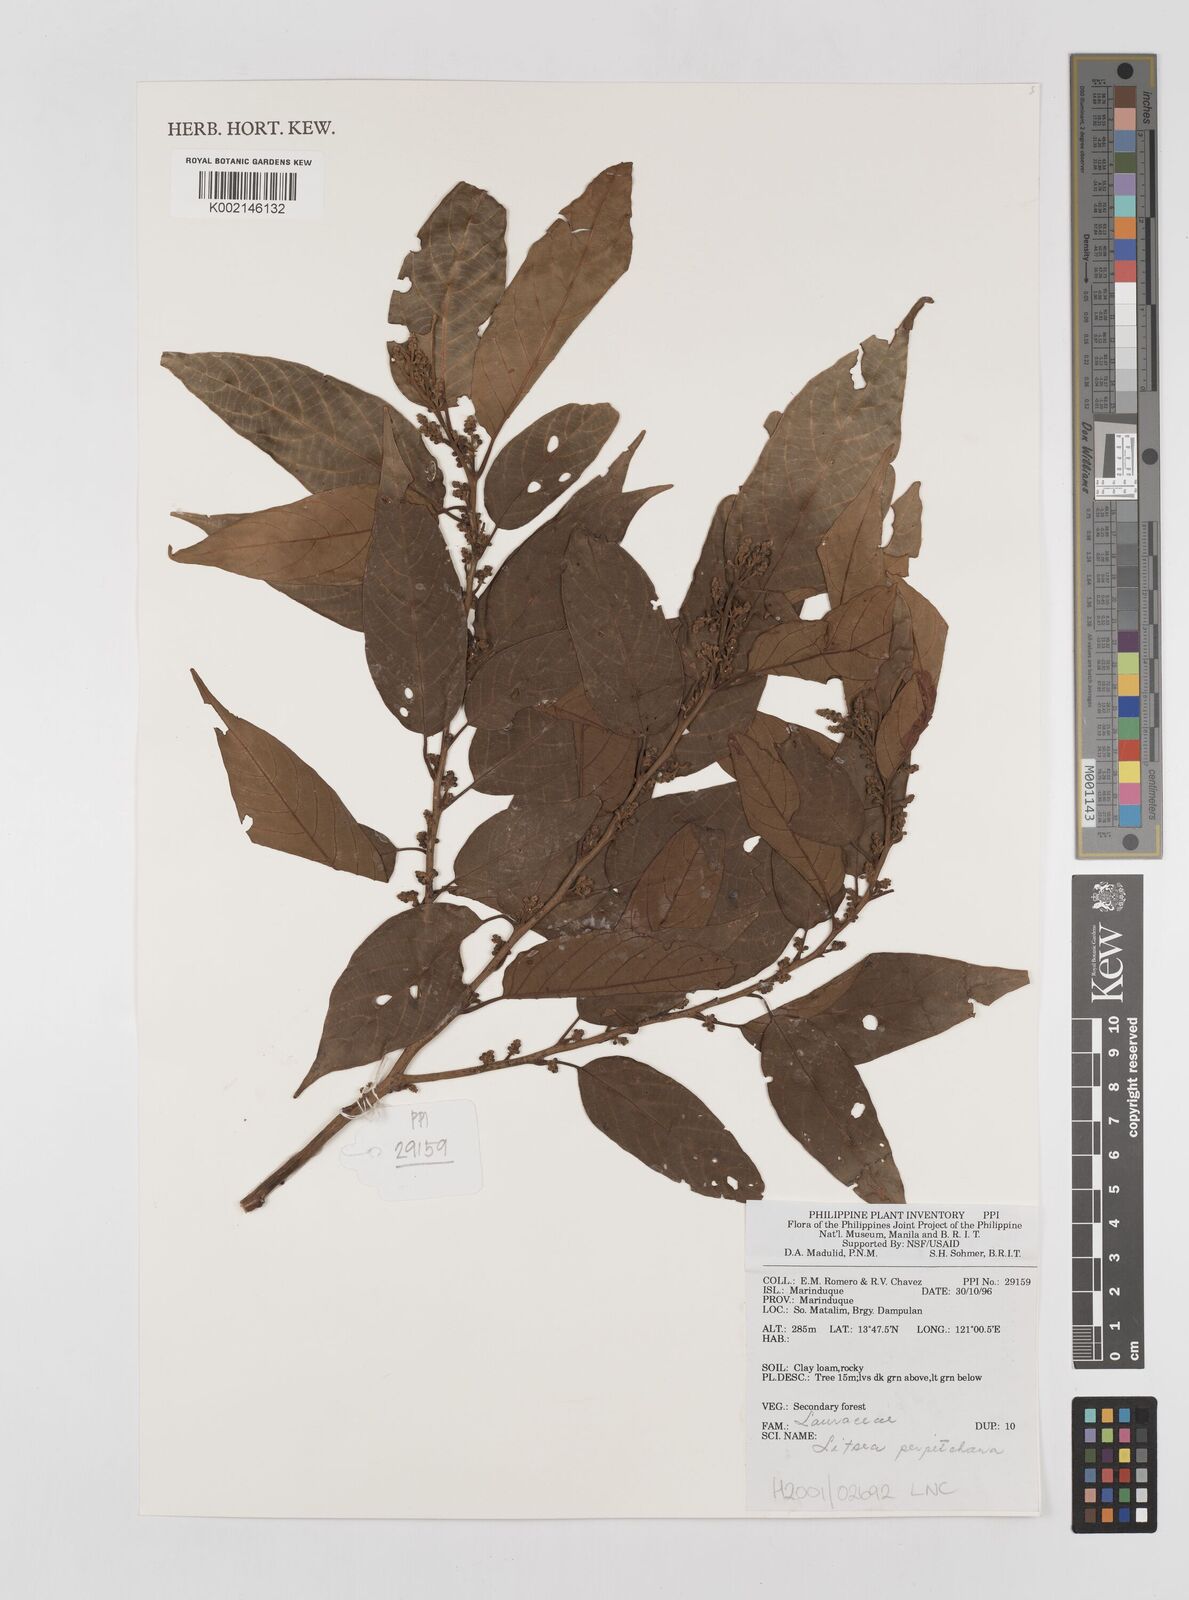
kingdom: Plantae
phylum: Tracheophyta
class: Magnoliopsida
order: Laurales
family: Lauraceae
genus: Litsea
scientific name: Litsea
